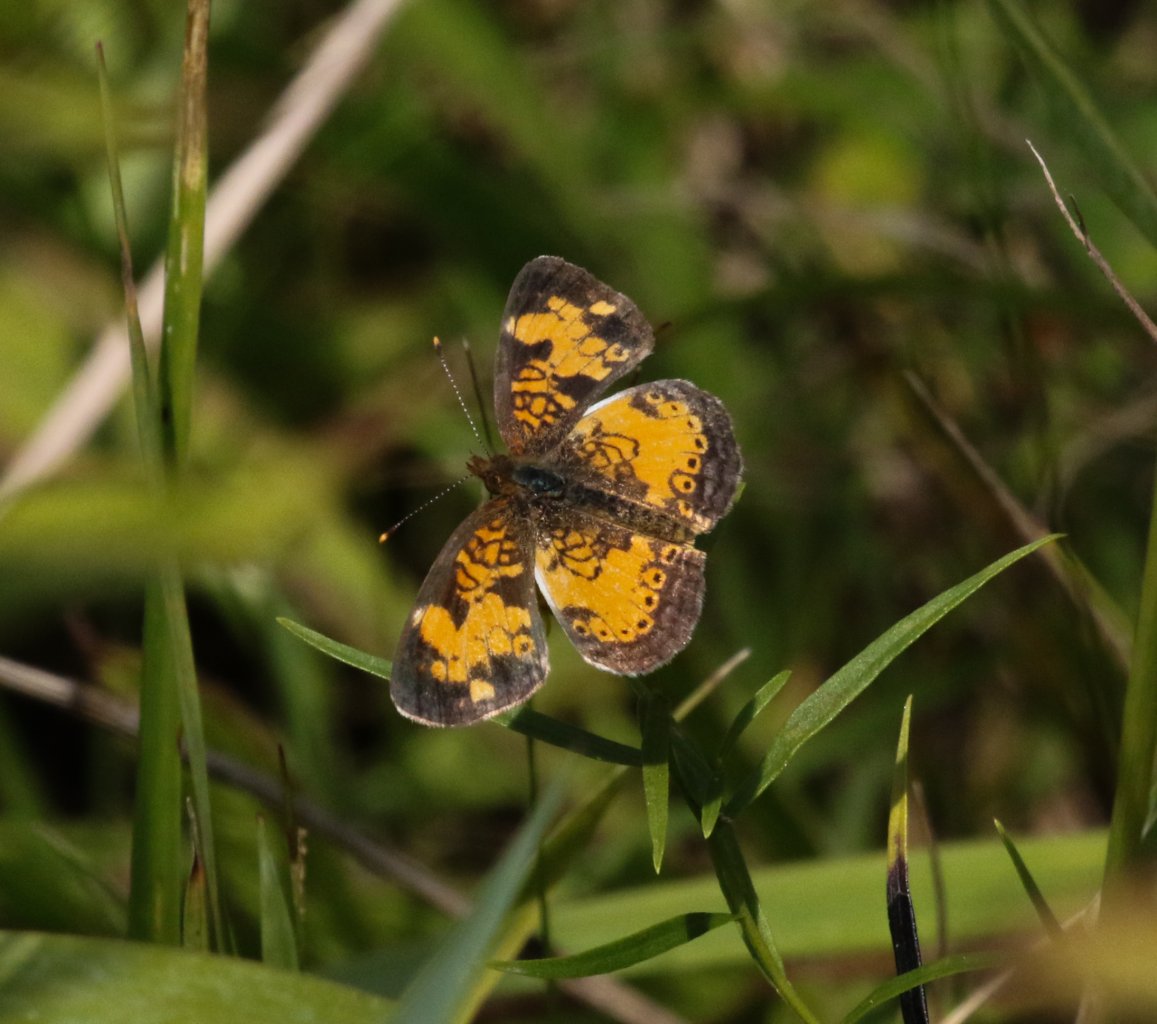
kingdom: Animalia
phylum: Arthropoda
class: Insecta
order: Lepidoptera
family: Nymphalidae
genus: Phyciodes
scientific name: Phyciodes tharos
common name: Northern Crescent
